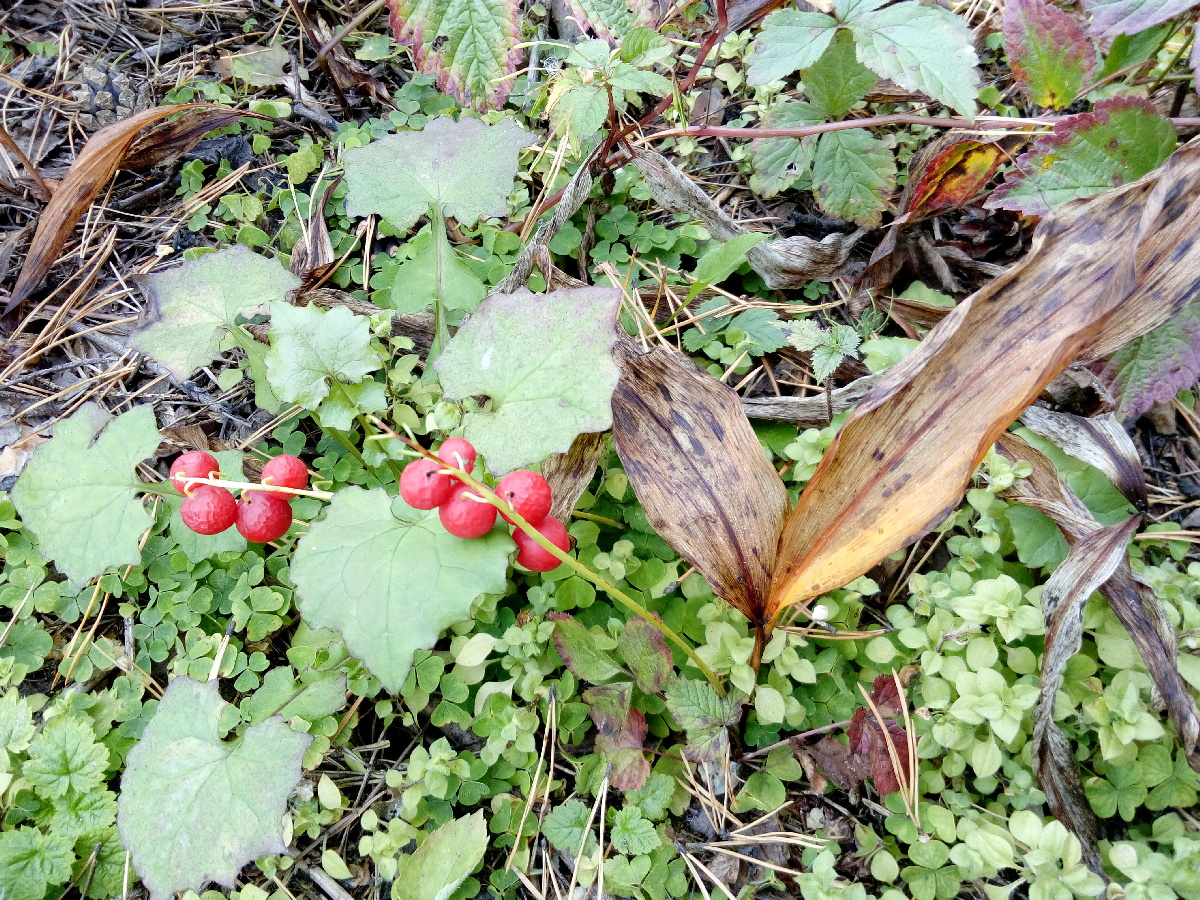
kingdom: Plantae
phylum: Tracheophyta
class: Liliopsida
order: Asparagales
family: Asparagaceae
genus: Convallaria
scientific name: Convallaria majalis
